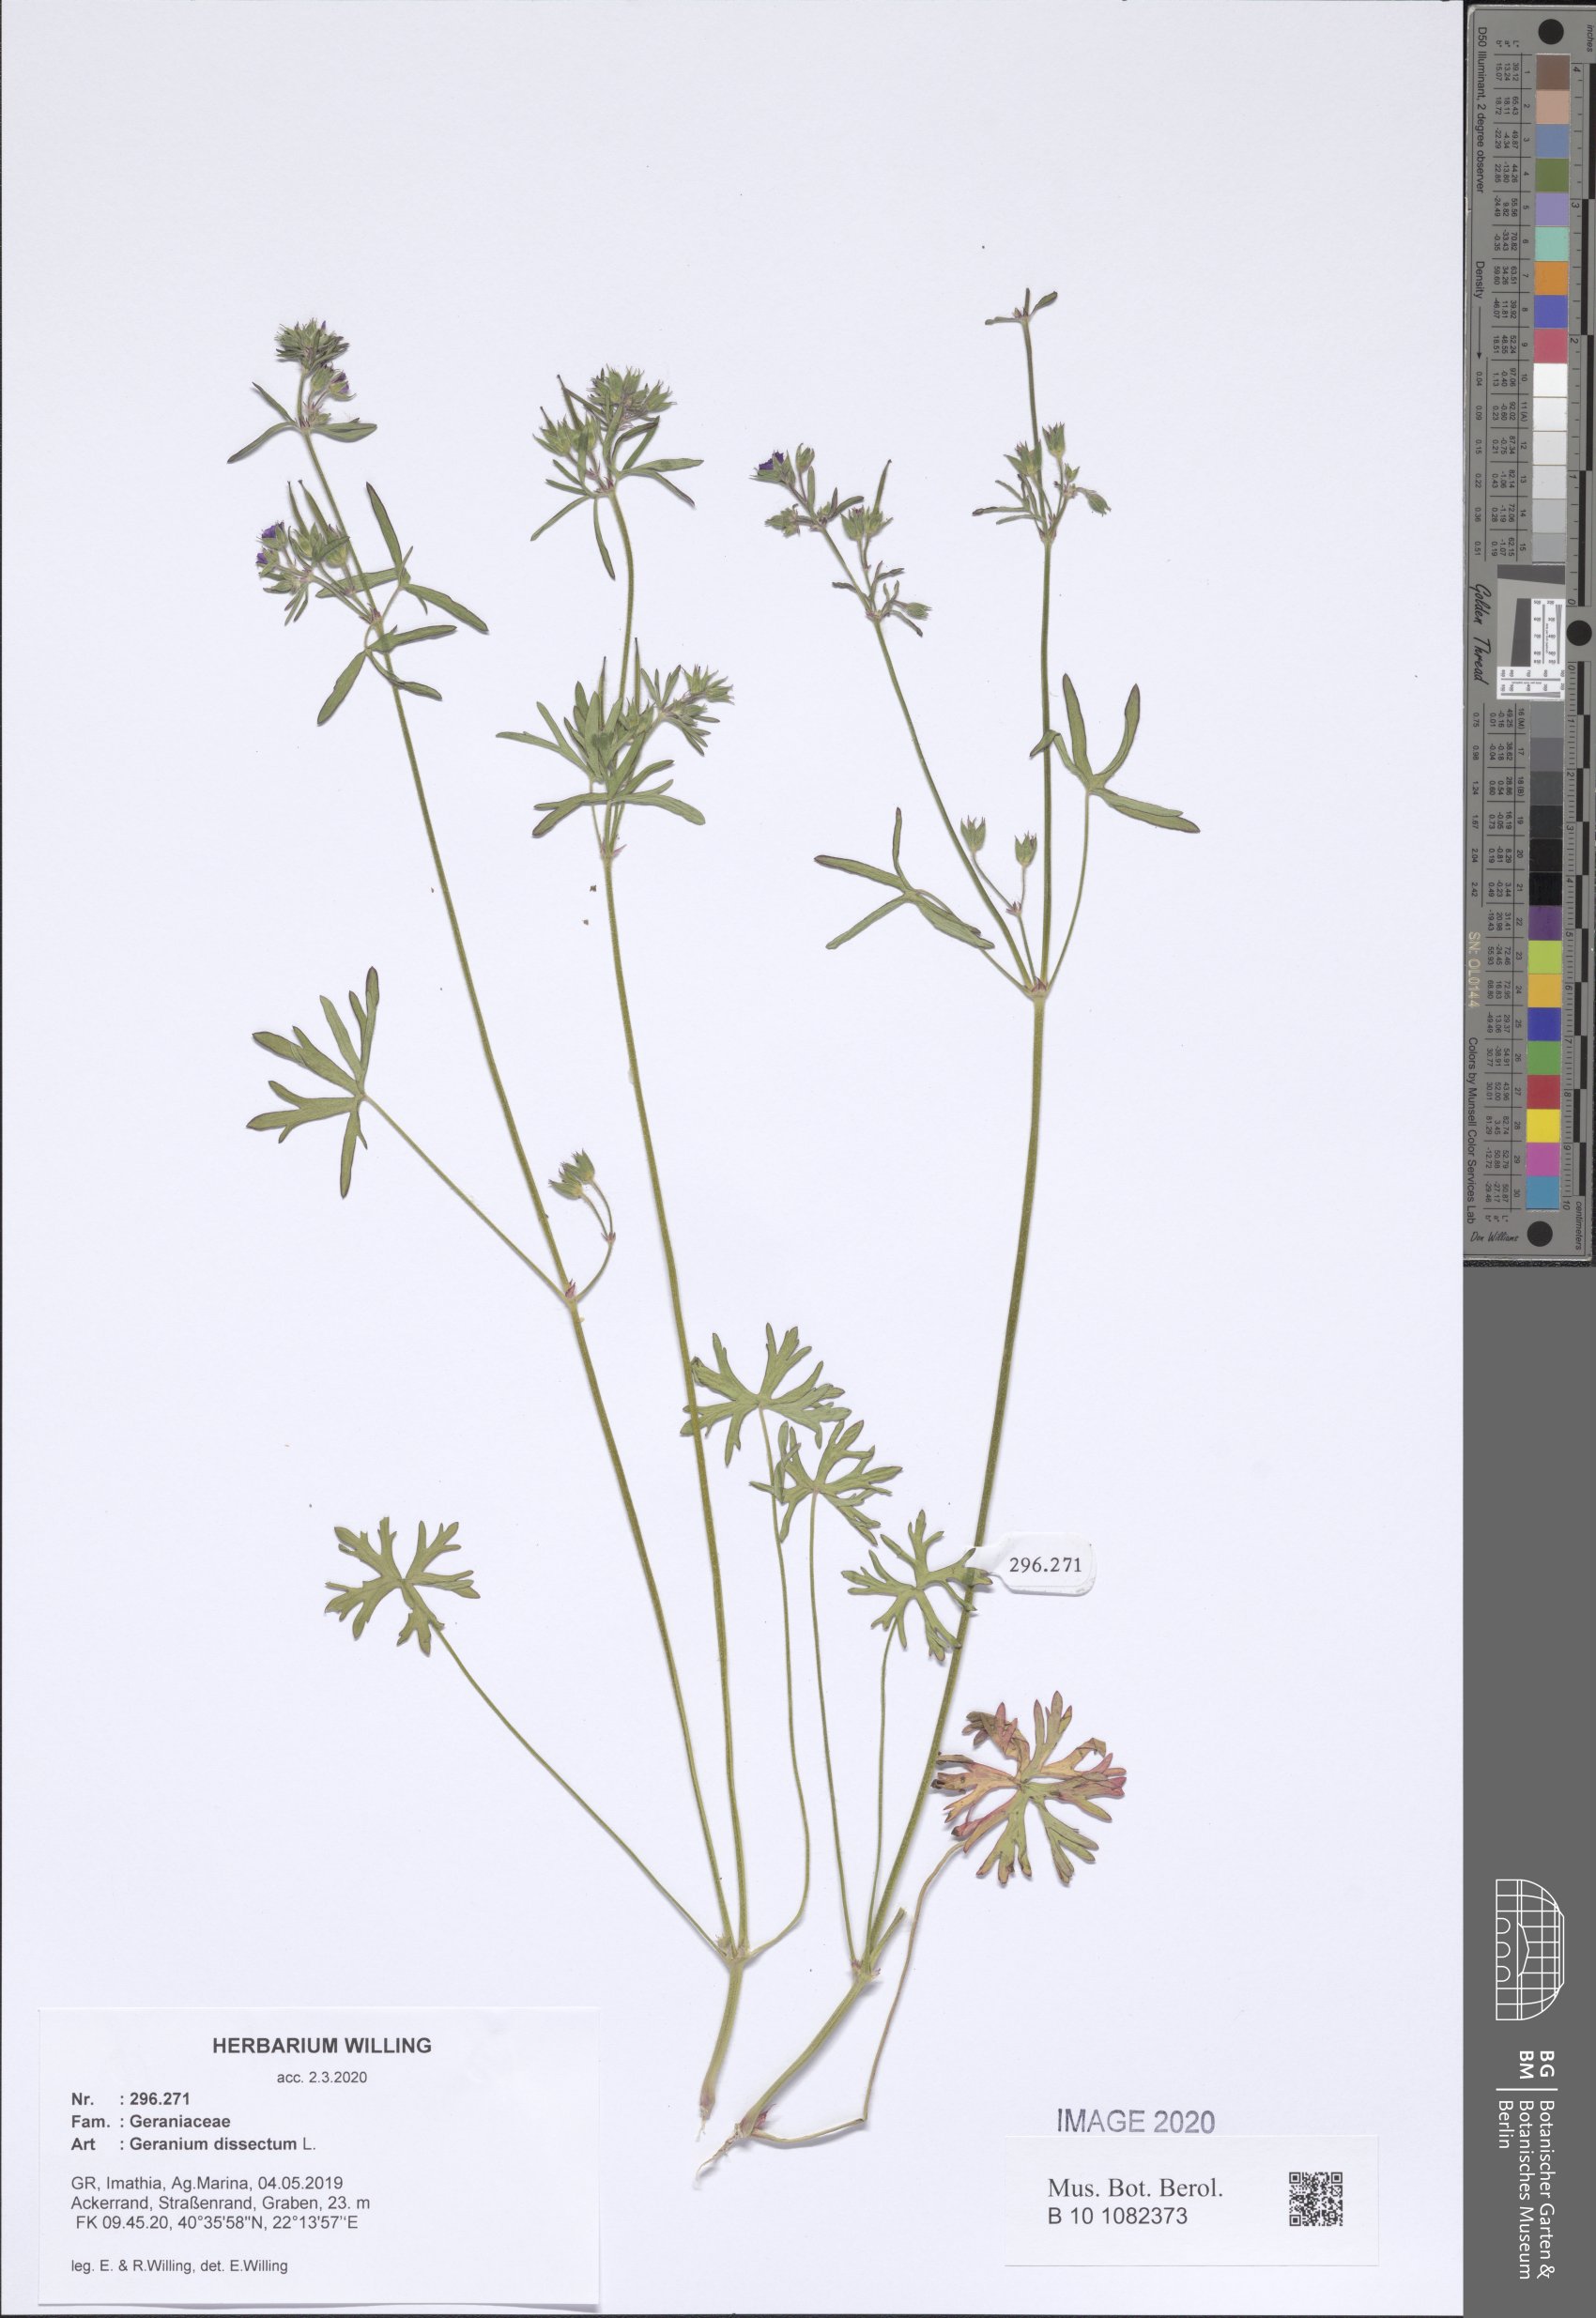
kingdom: Plantae
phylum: Tracheophyta
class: Magnoliopsida
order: Geraniales
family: Geraniaceae
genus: Geranium
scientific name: Geranium dissectum
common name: Cut-leaved crane's-bill
